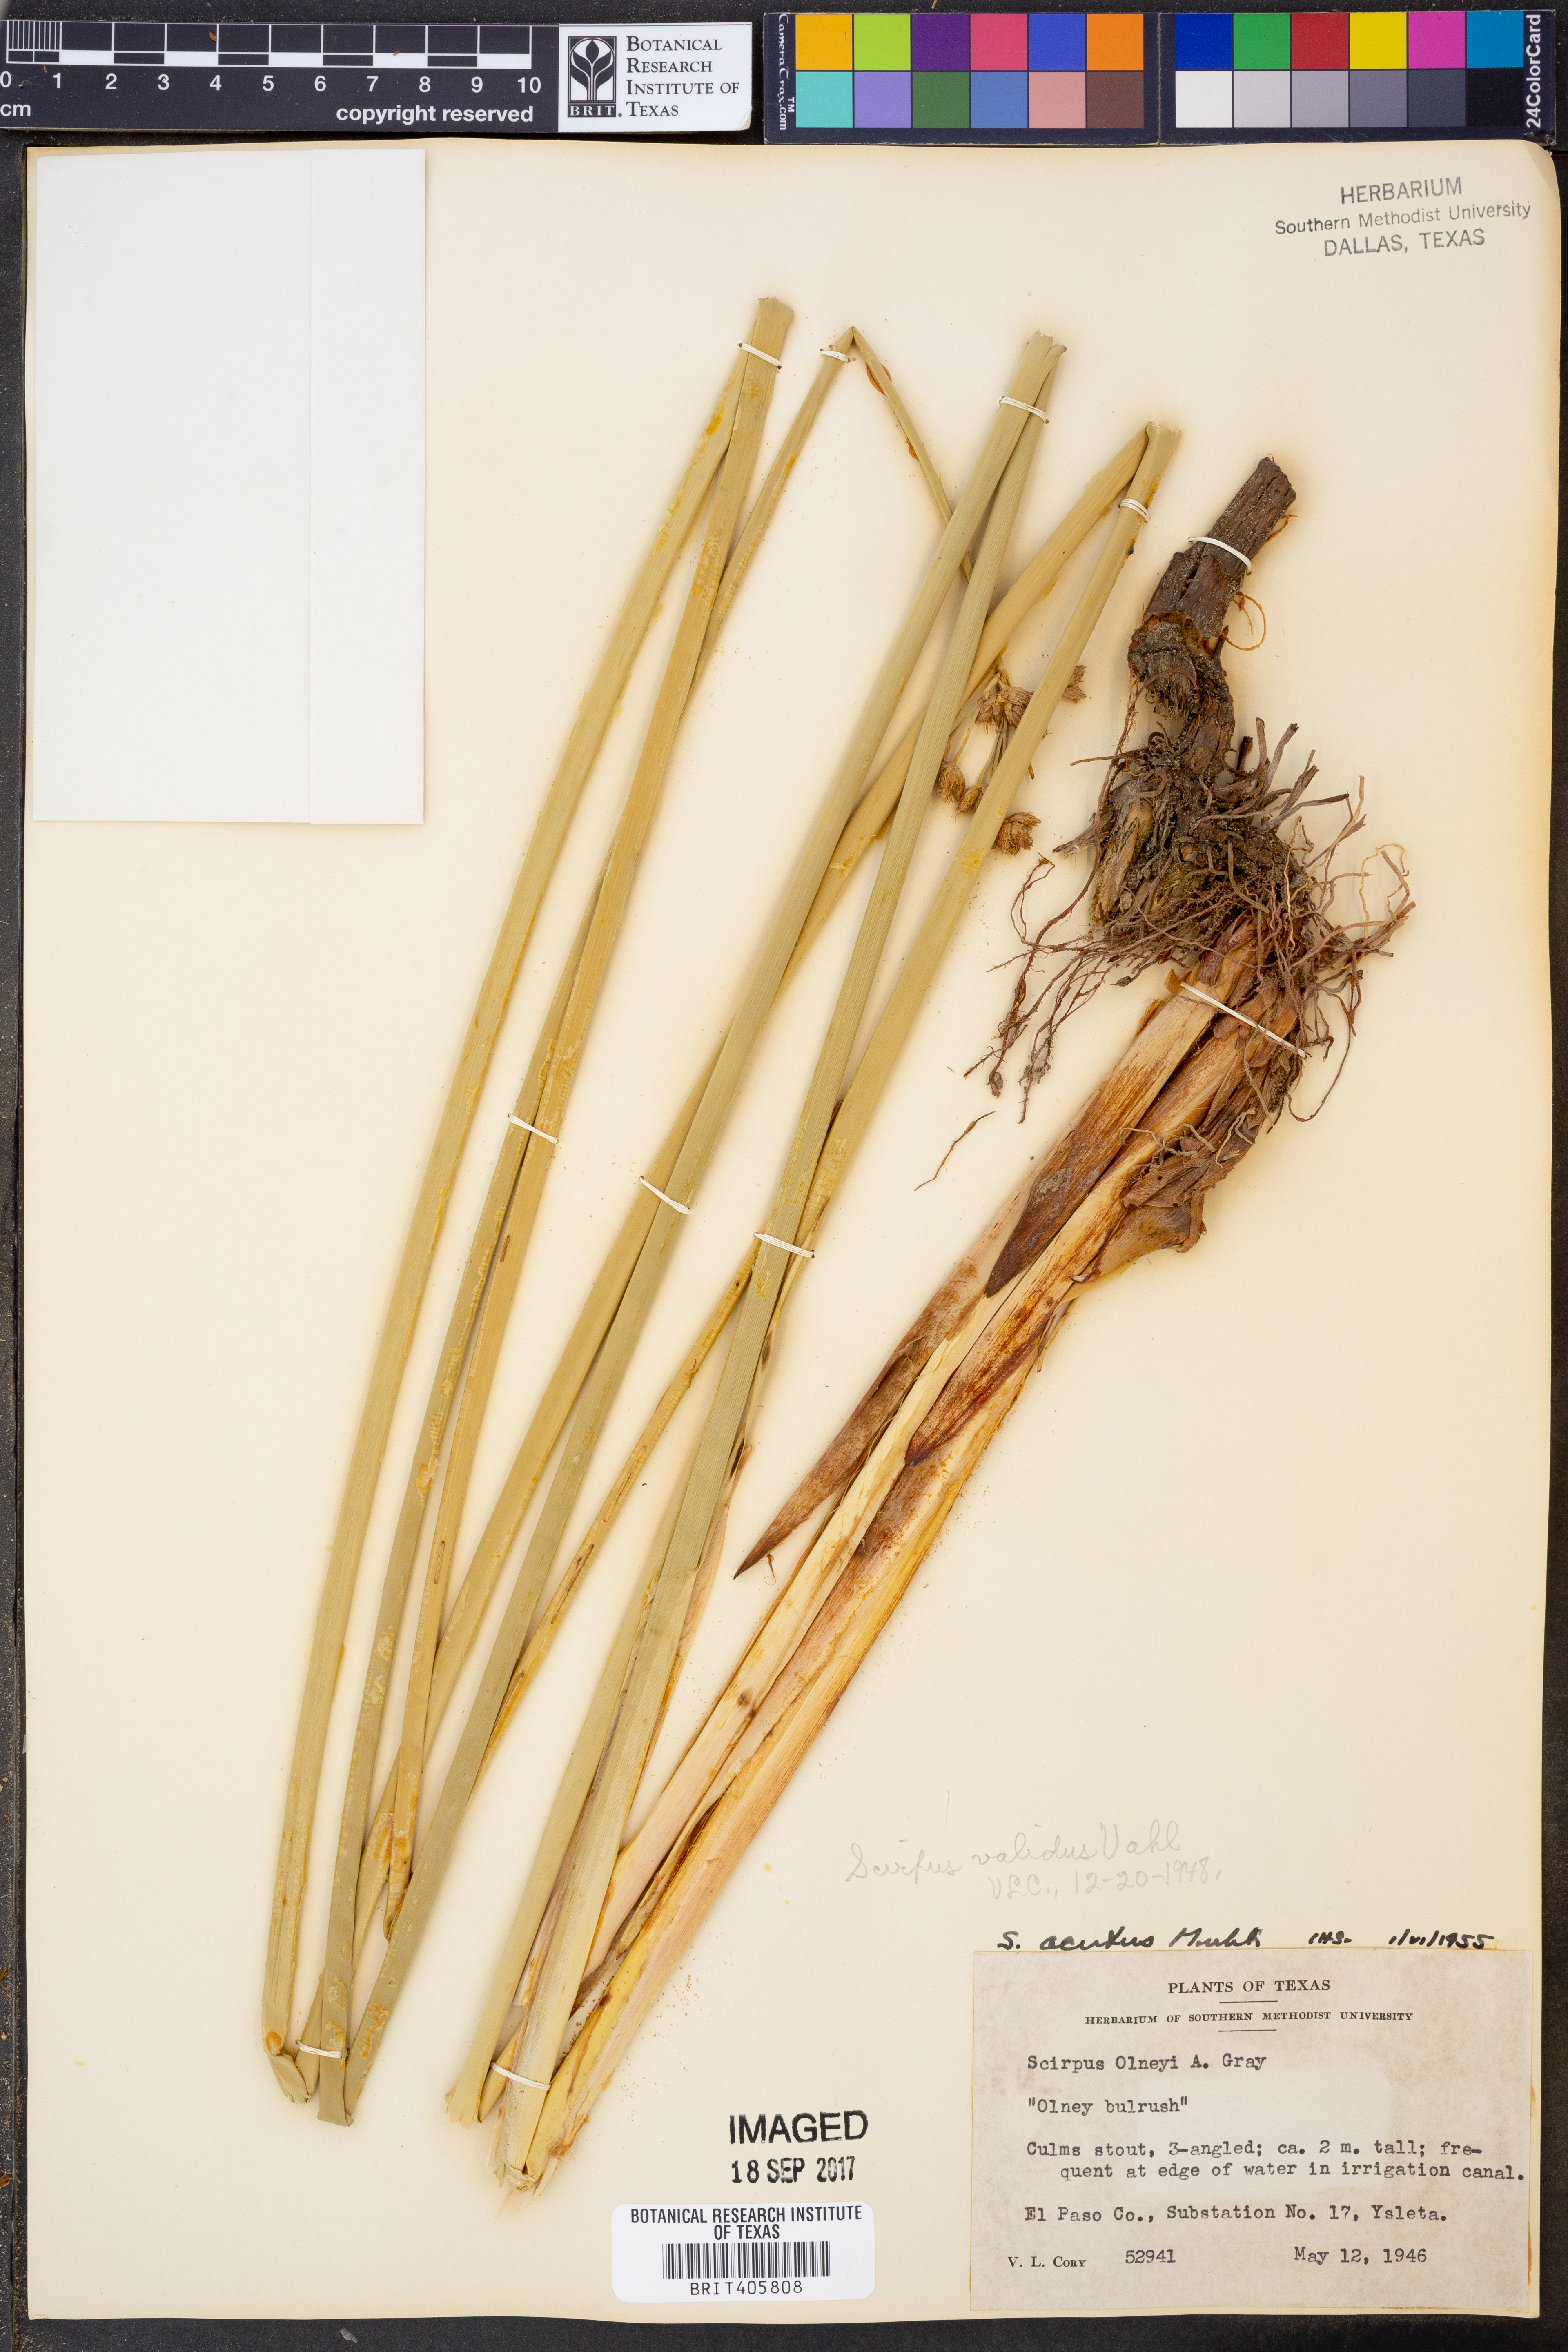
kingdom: Plantae
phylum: Tracheophyta
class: Liliopsida
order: Poales
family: Cyperaceae
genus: Scirpus
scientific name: Scirpus acutus
